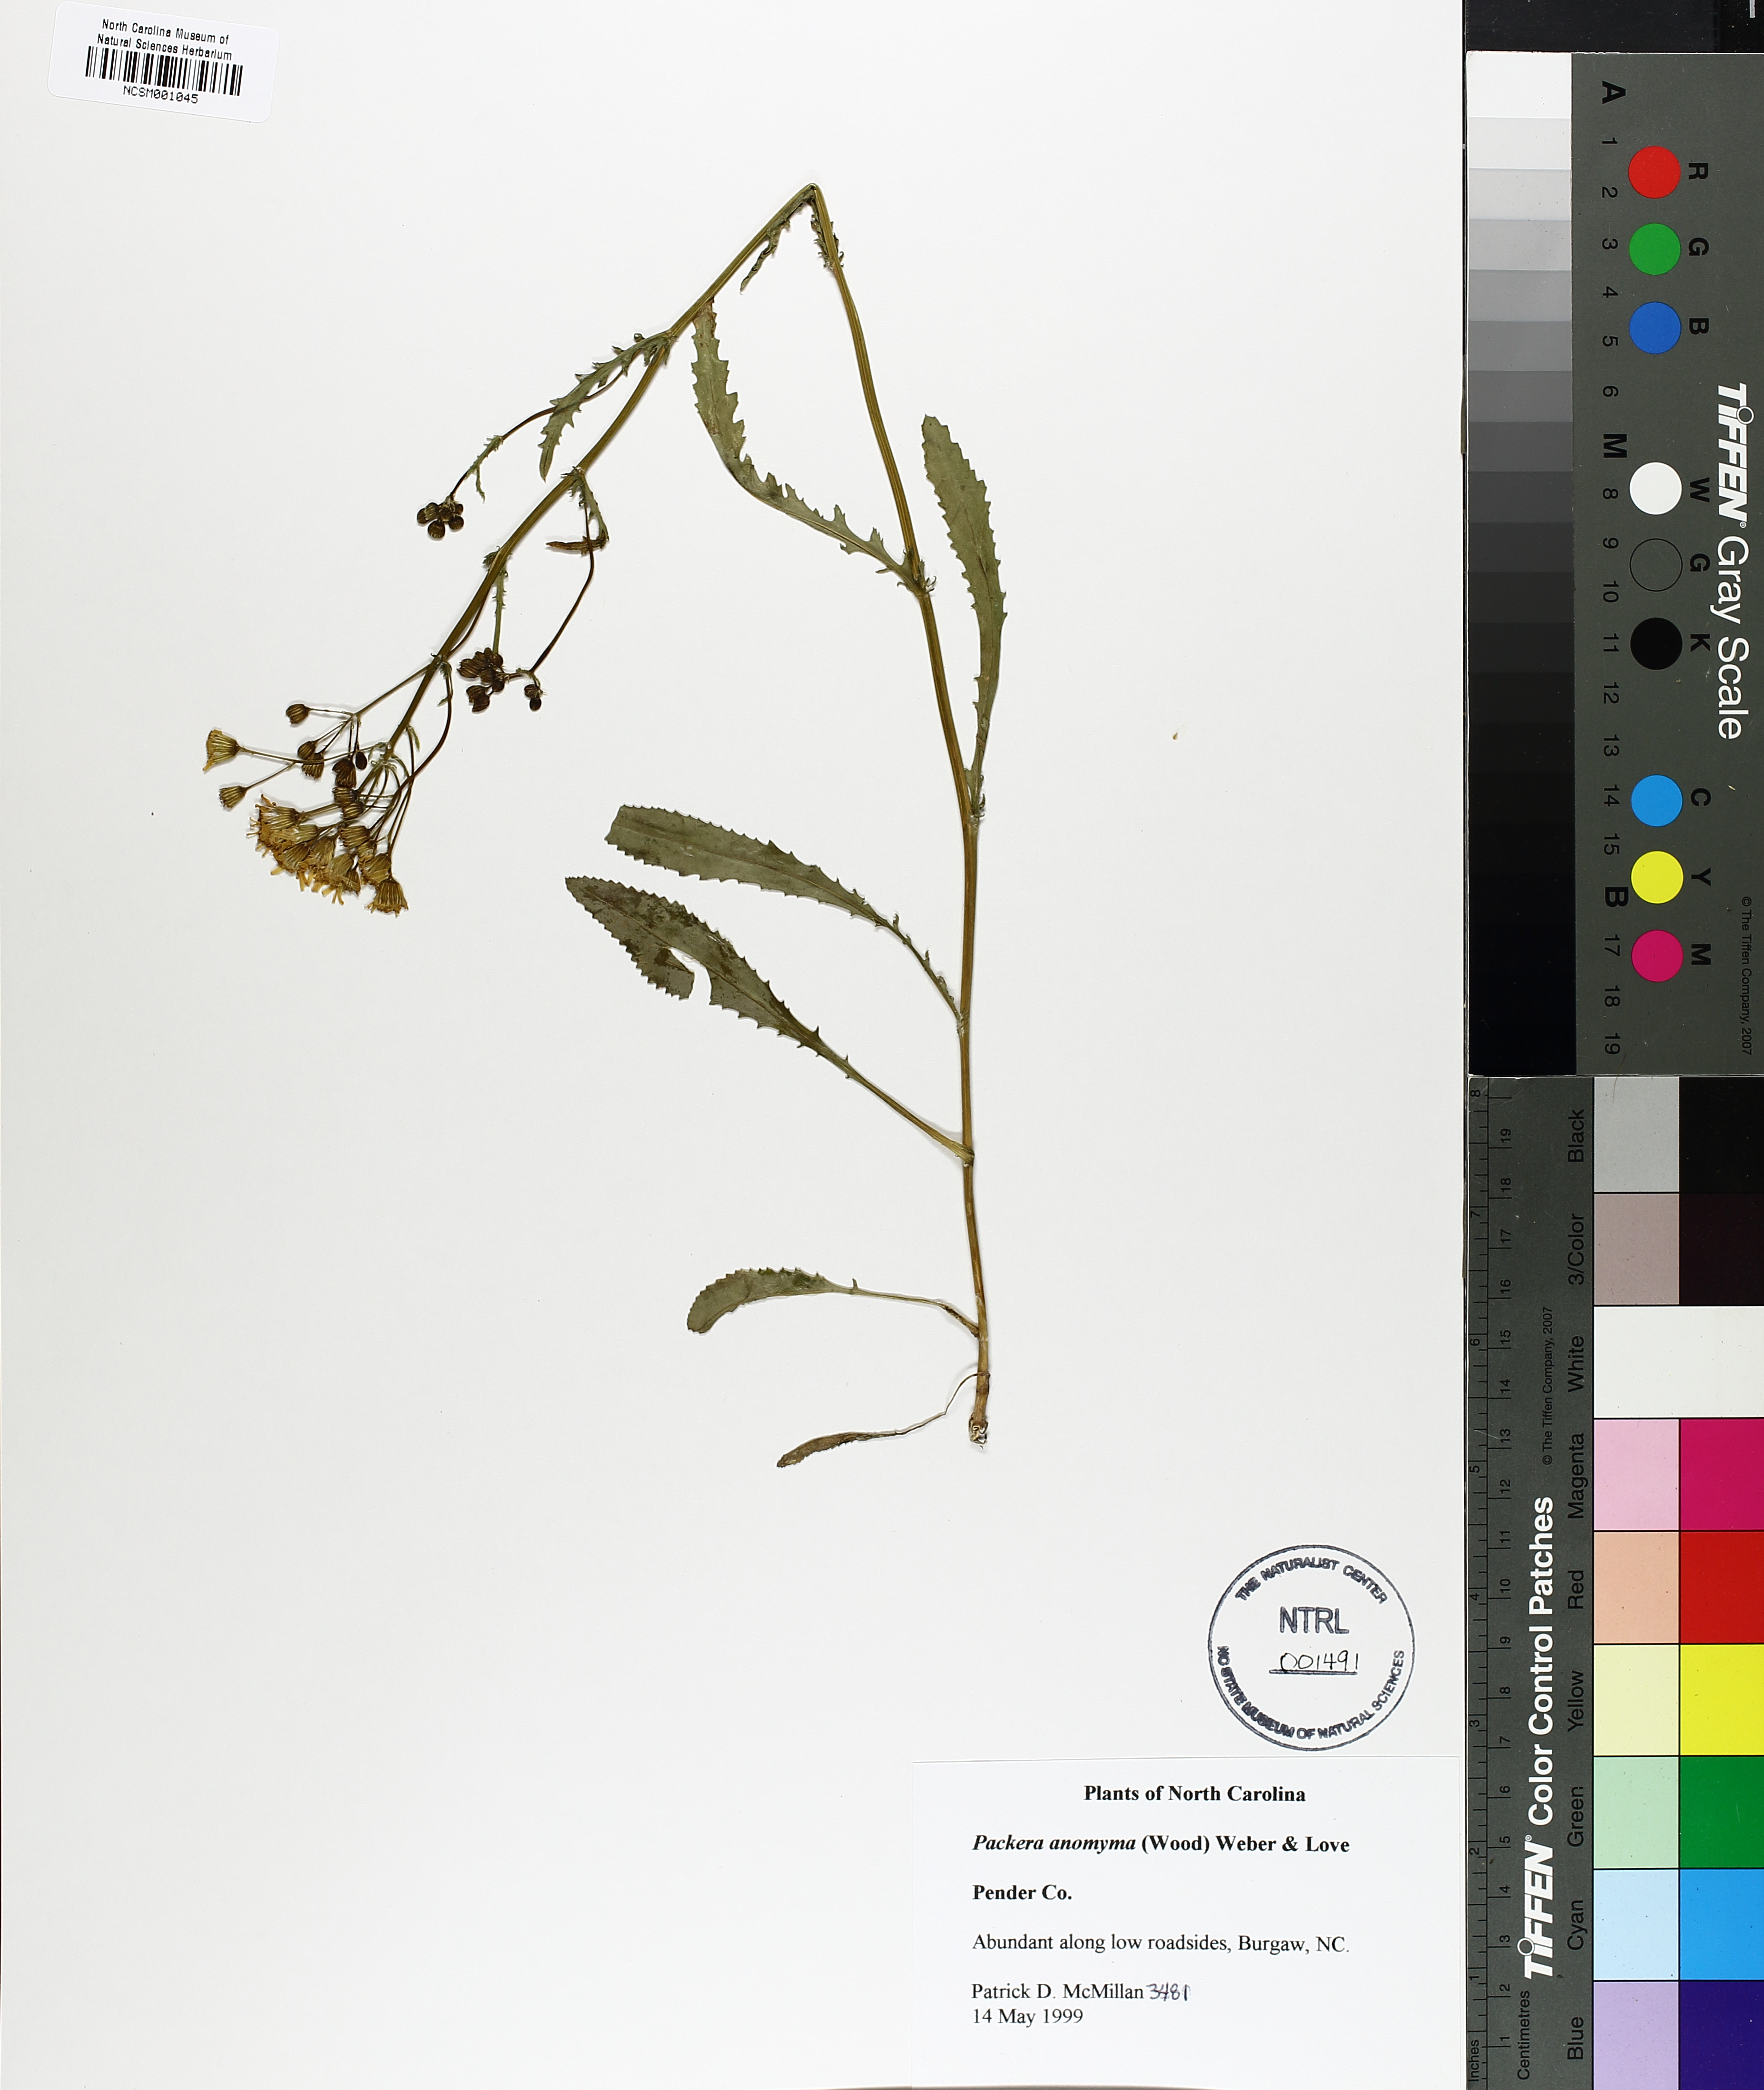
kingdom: Plantae
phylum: Tracheophyta
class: Magnoliopsida
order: Asterales
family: Asteraceae
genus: Packera
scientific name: Packera anonyma
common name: Small ragwort
